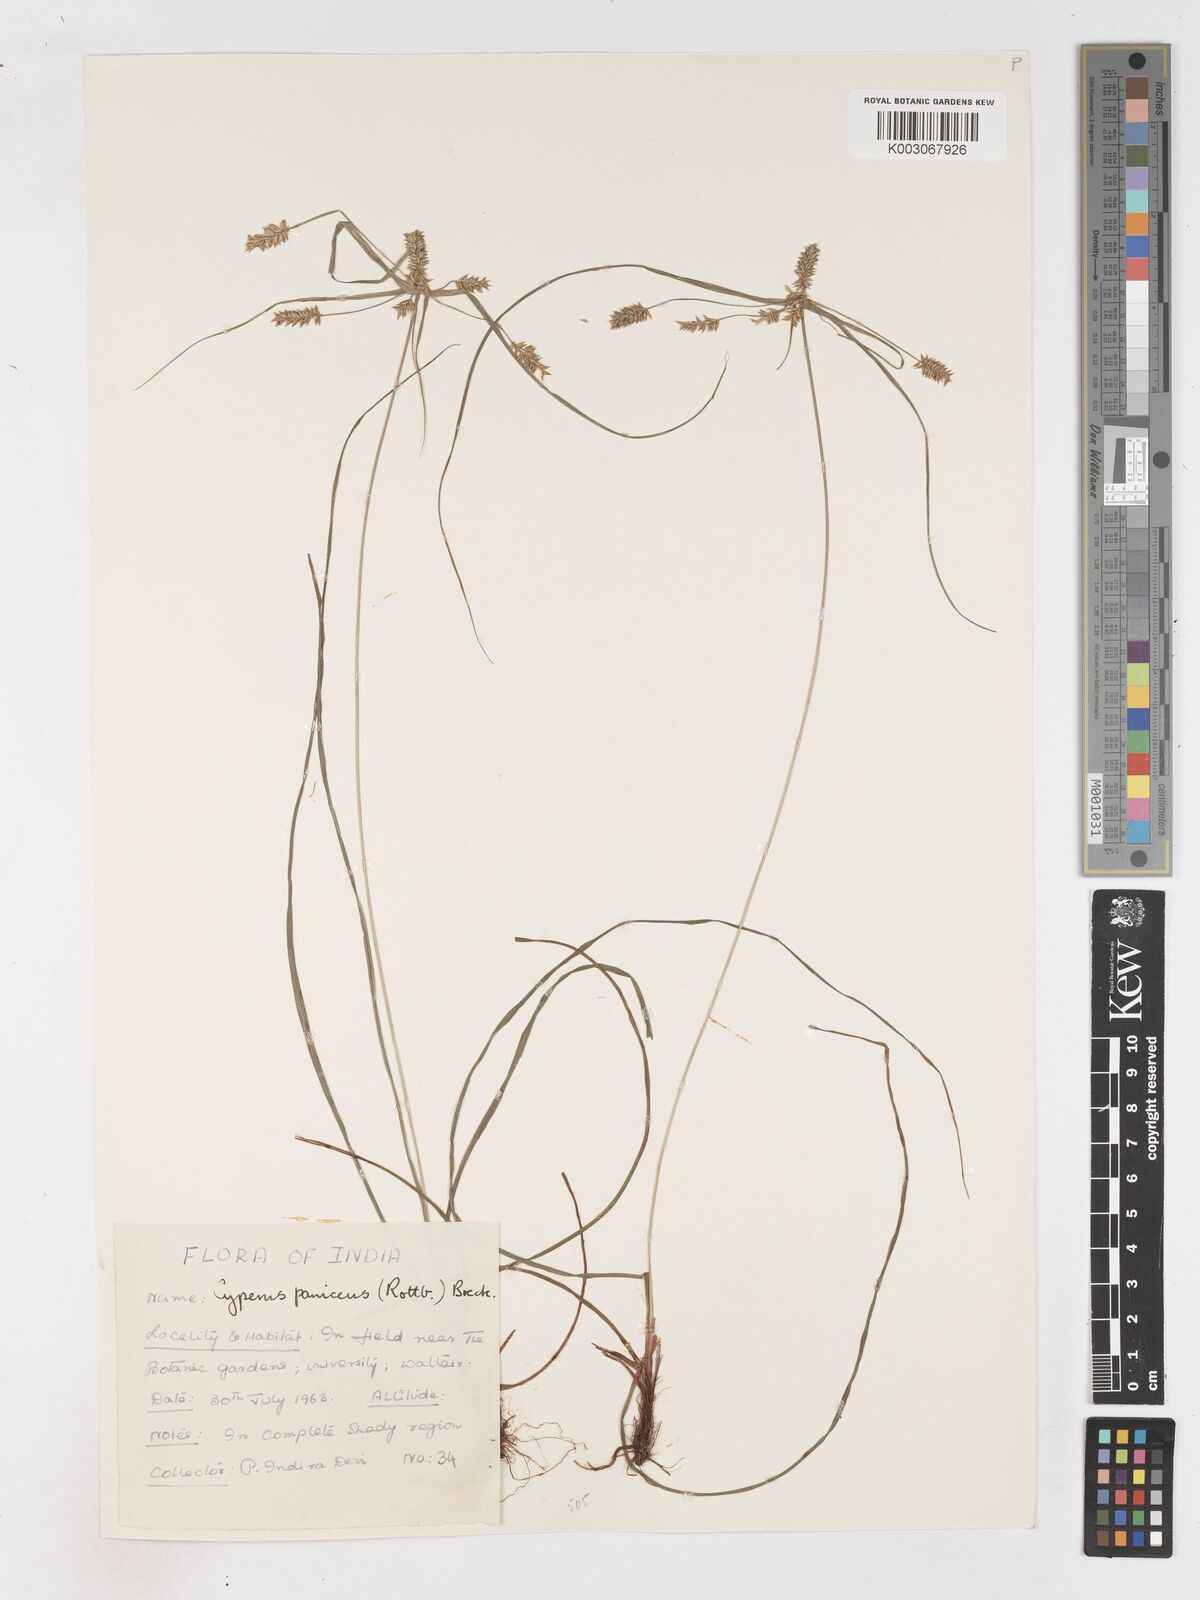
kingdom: Plantae
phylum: Tracheophyta
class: Liliopsida
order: Poales
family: Cyperaceae
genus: Cyperus
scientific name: Cyperus paniceus
